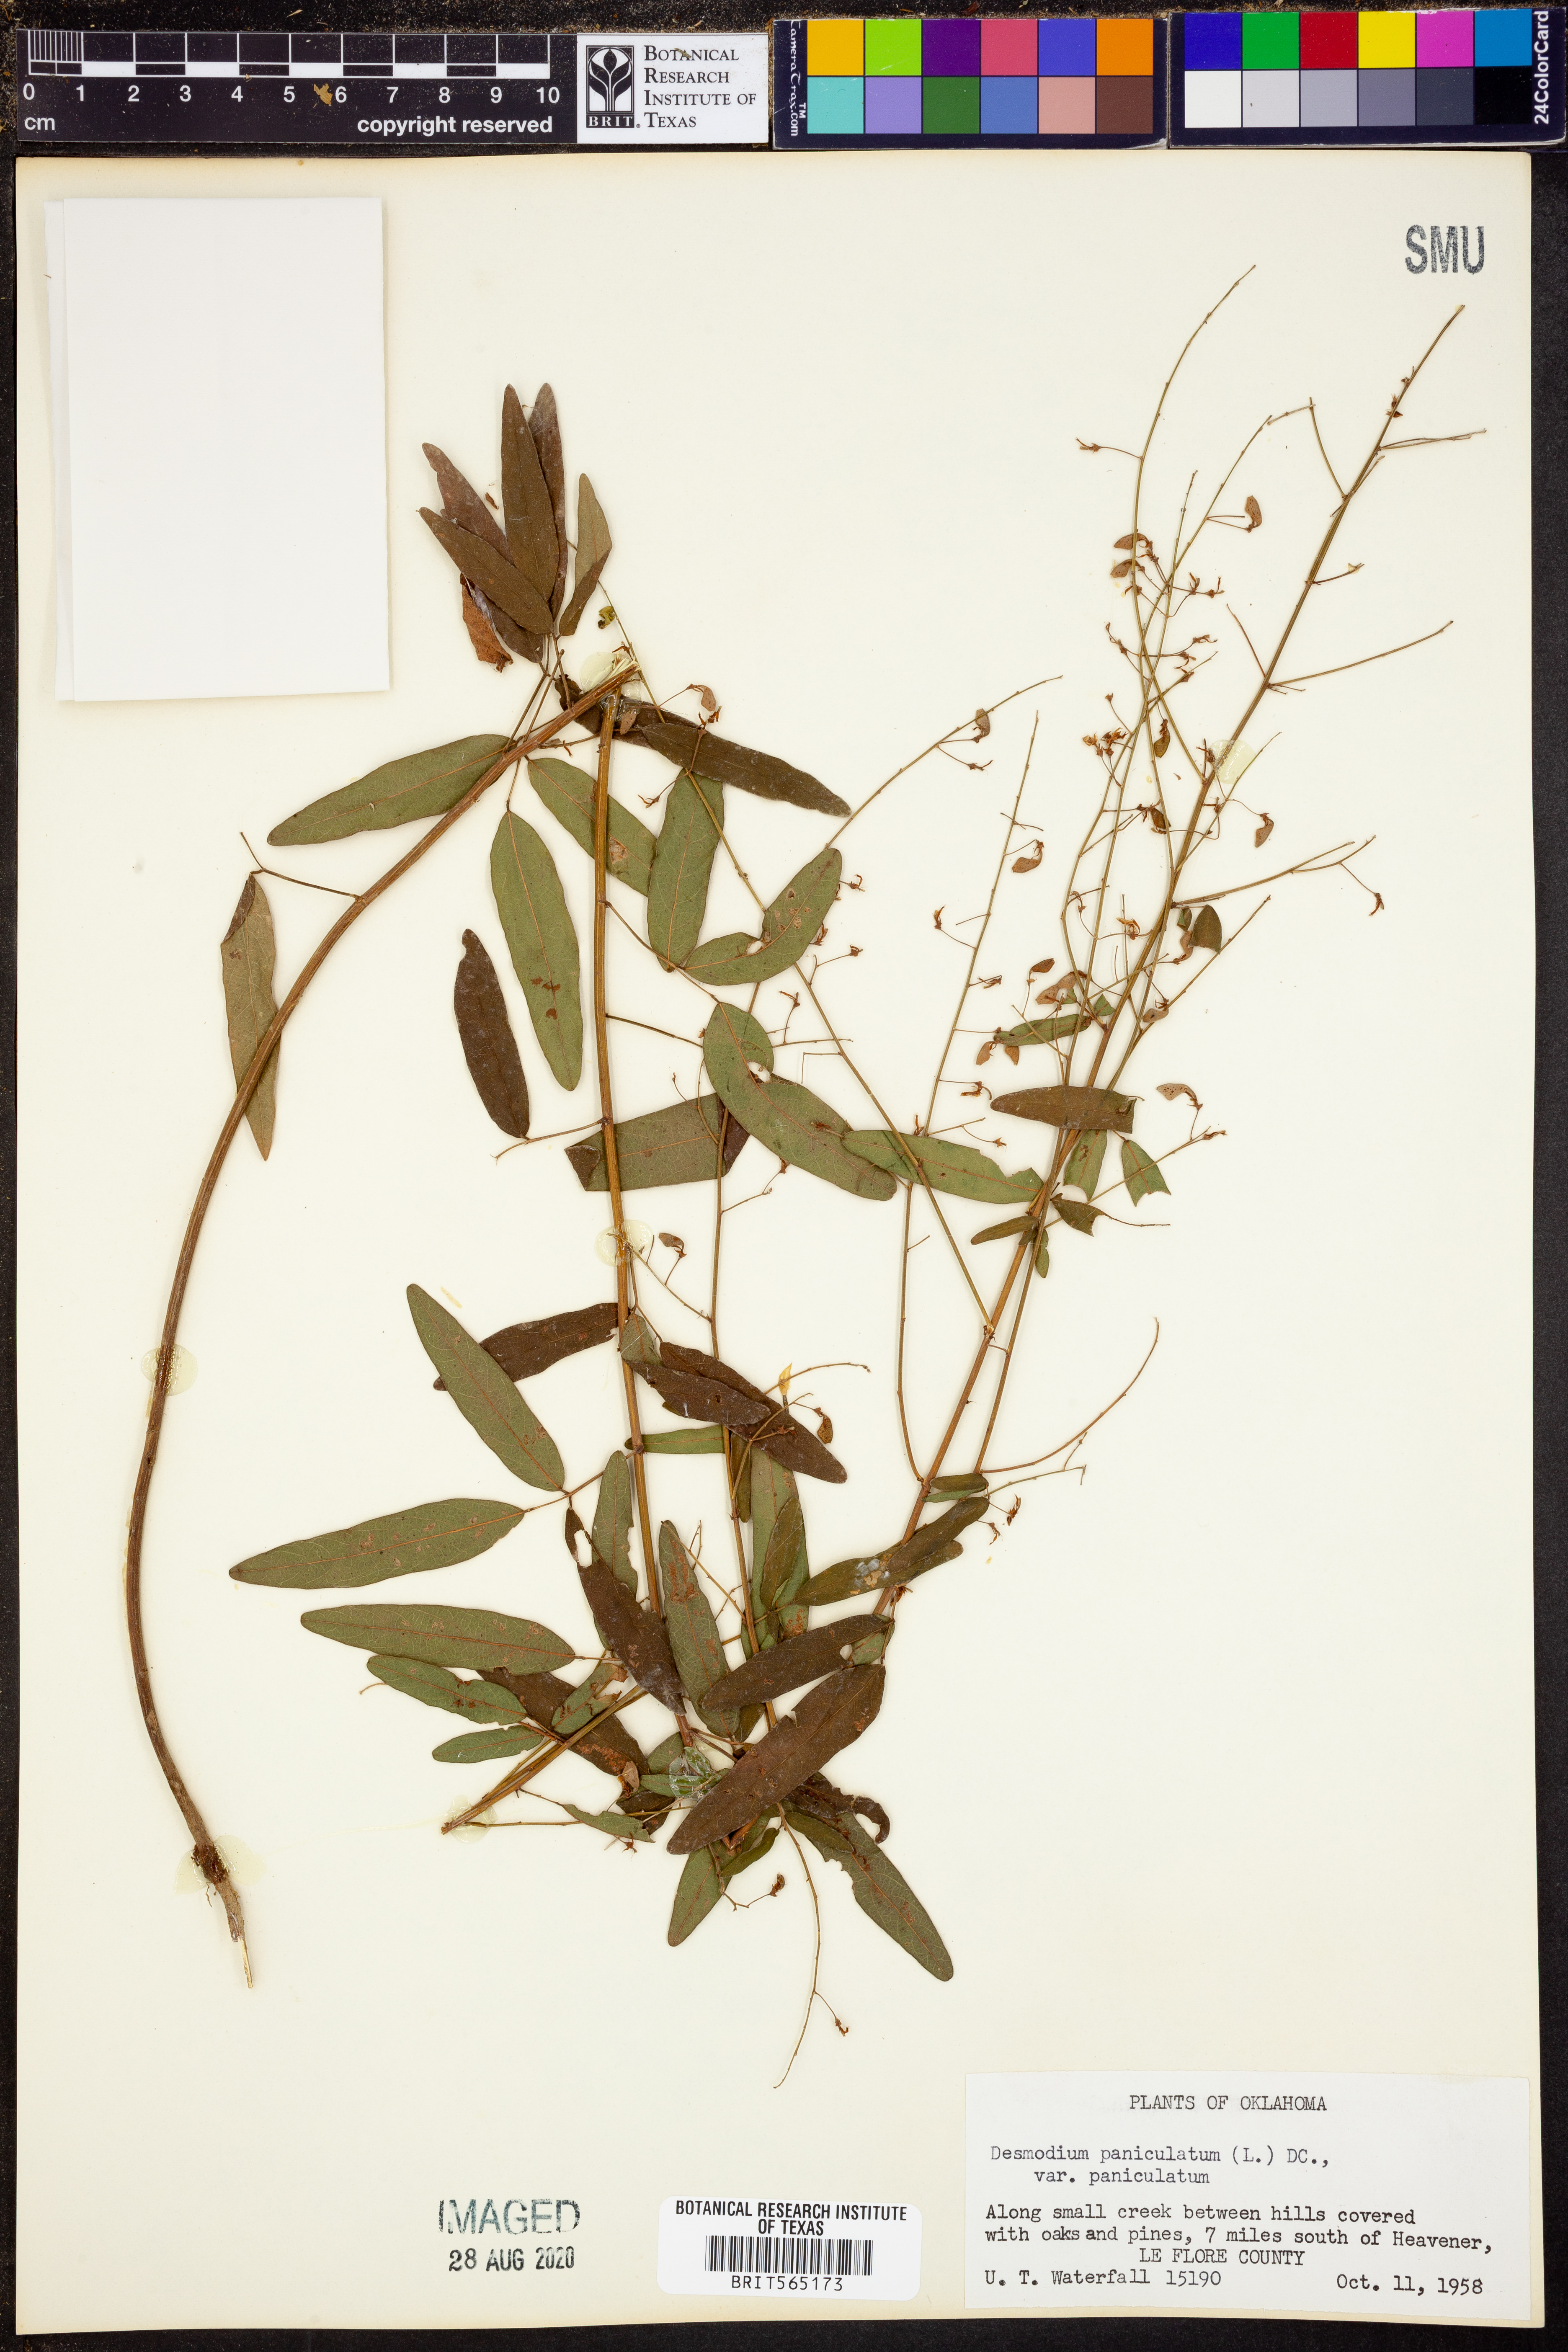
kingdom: Plantae
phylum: Tracheophyta
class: Magnoliopsida
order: Fabales
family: Fabaceae
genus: Desmodium
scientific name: Desmodium paniculatum
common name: Panicled tick-clover
